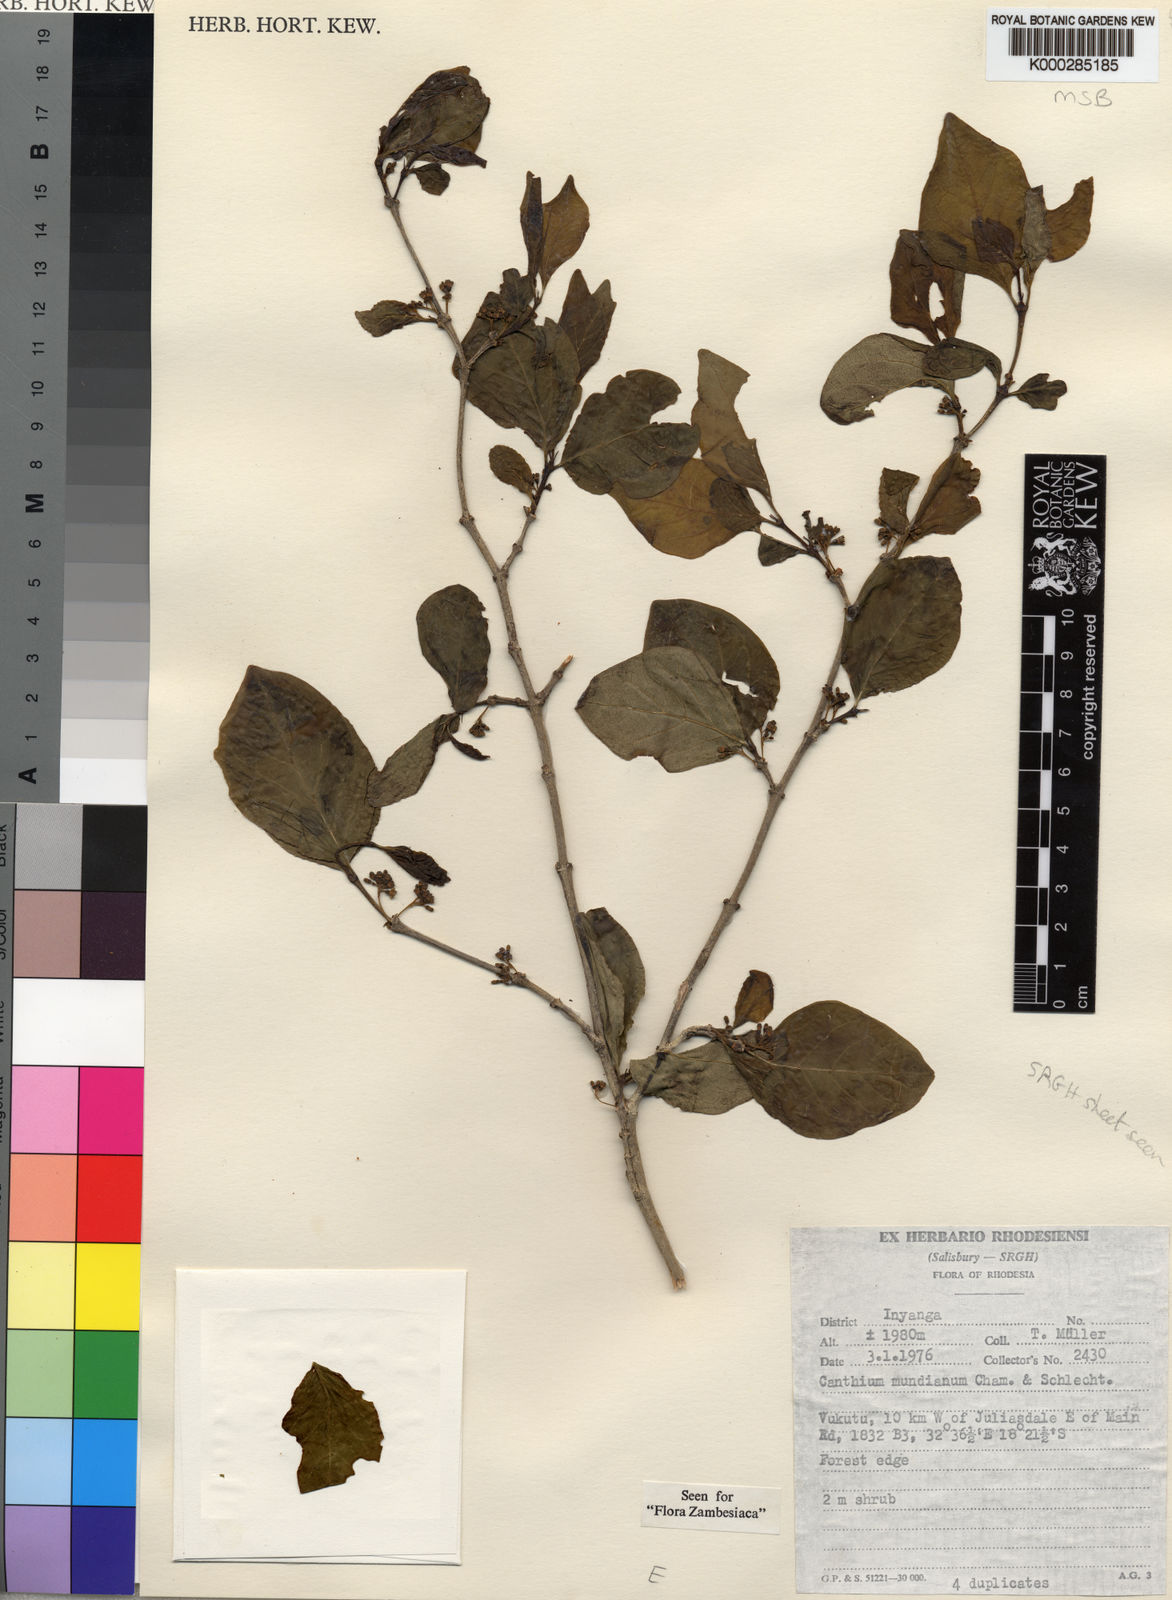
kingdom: Plantae
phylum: Tracheophyta
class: Magnoliopsida
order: Gentianales
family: Rubiaceae
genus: Afrocanthium
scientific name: Afrocanthium mundianum
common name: Rock-alder
